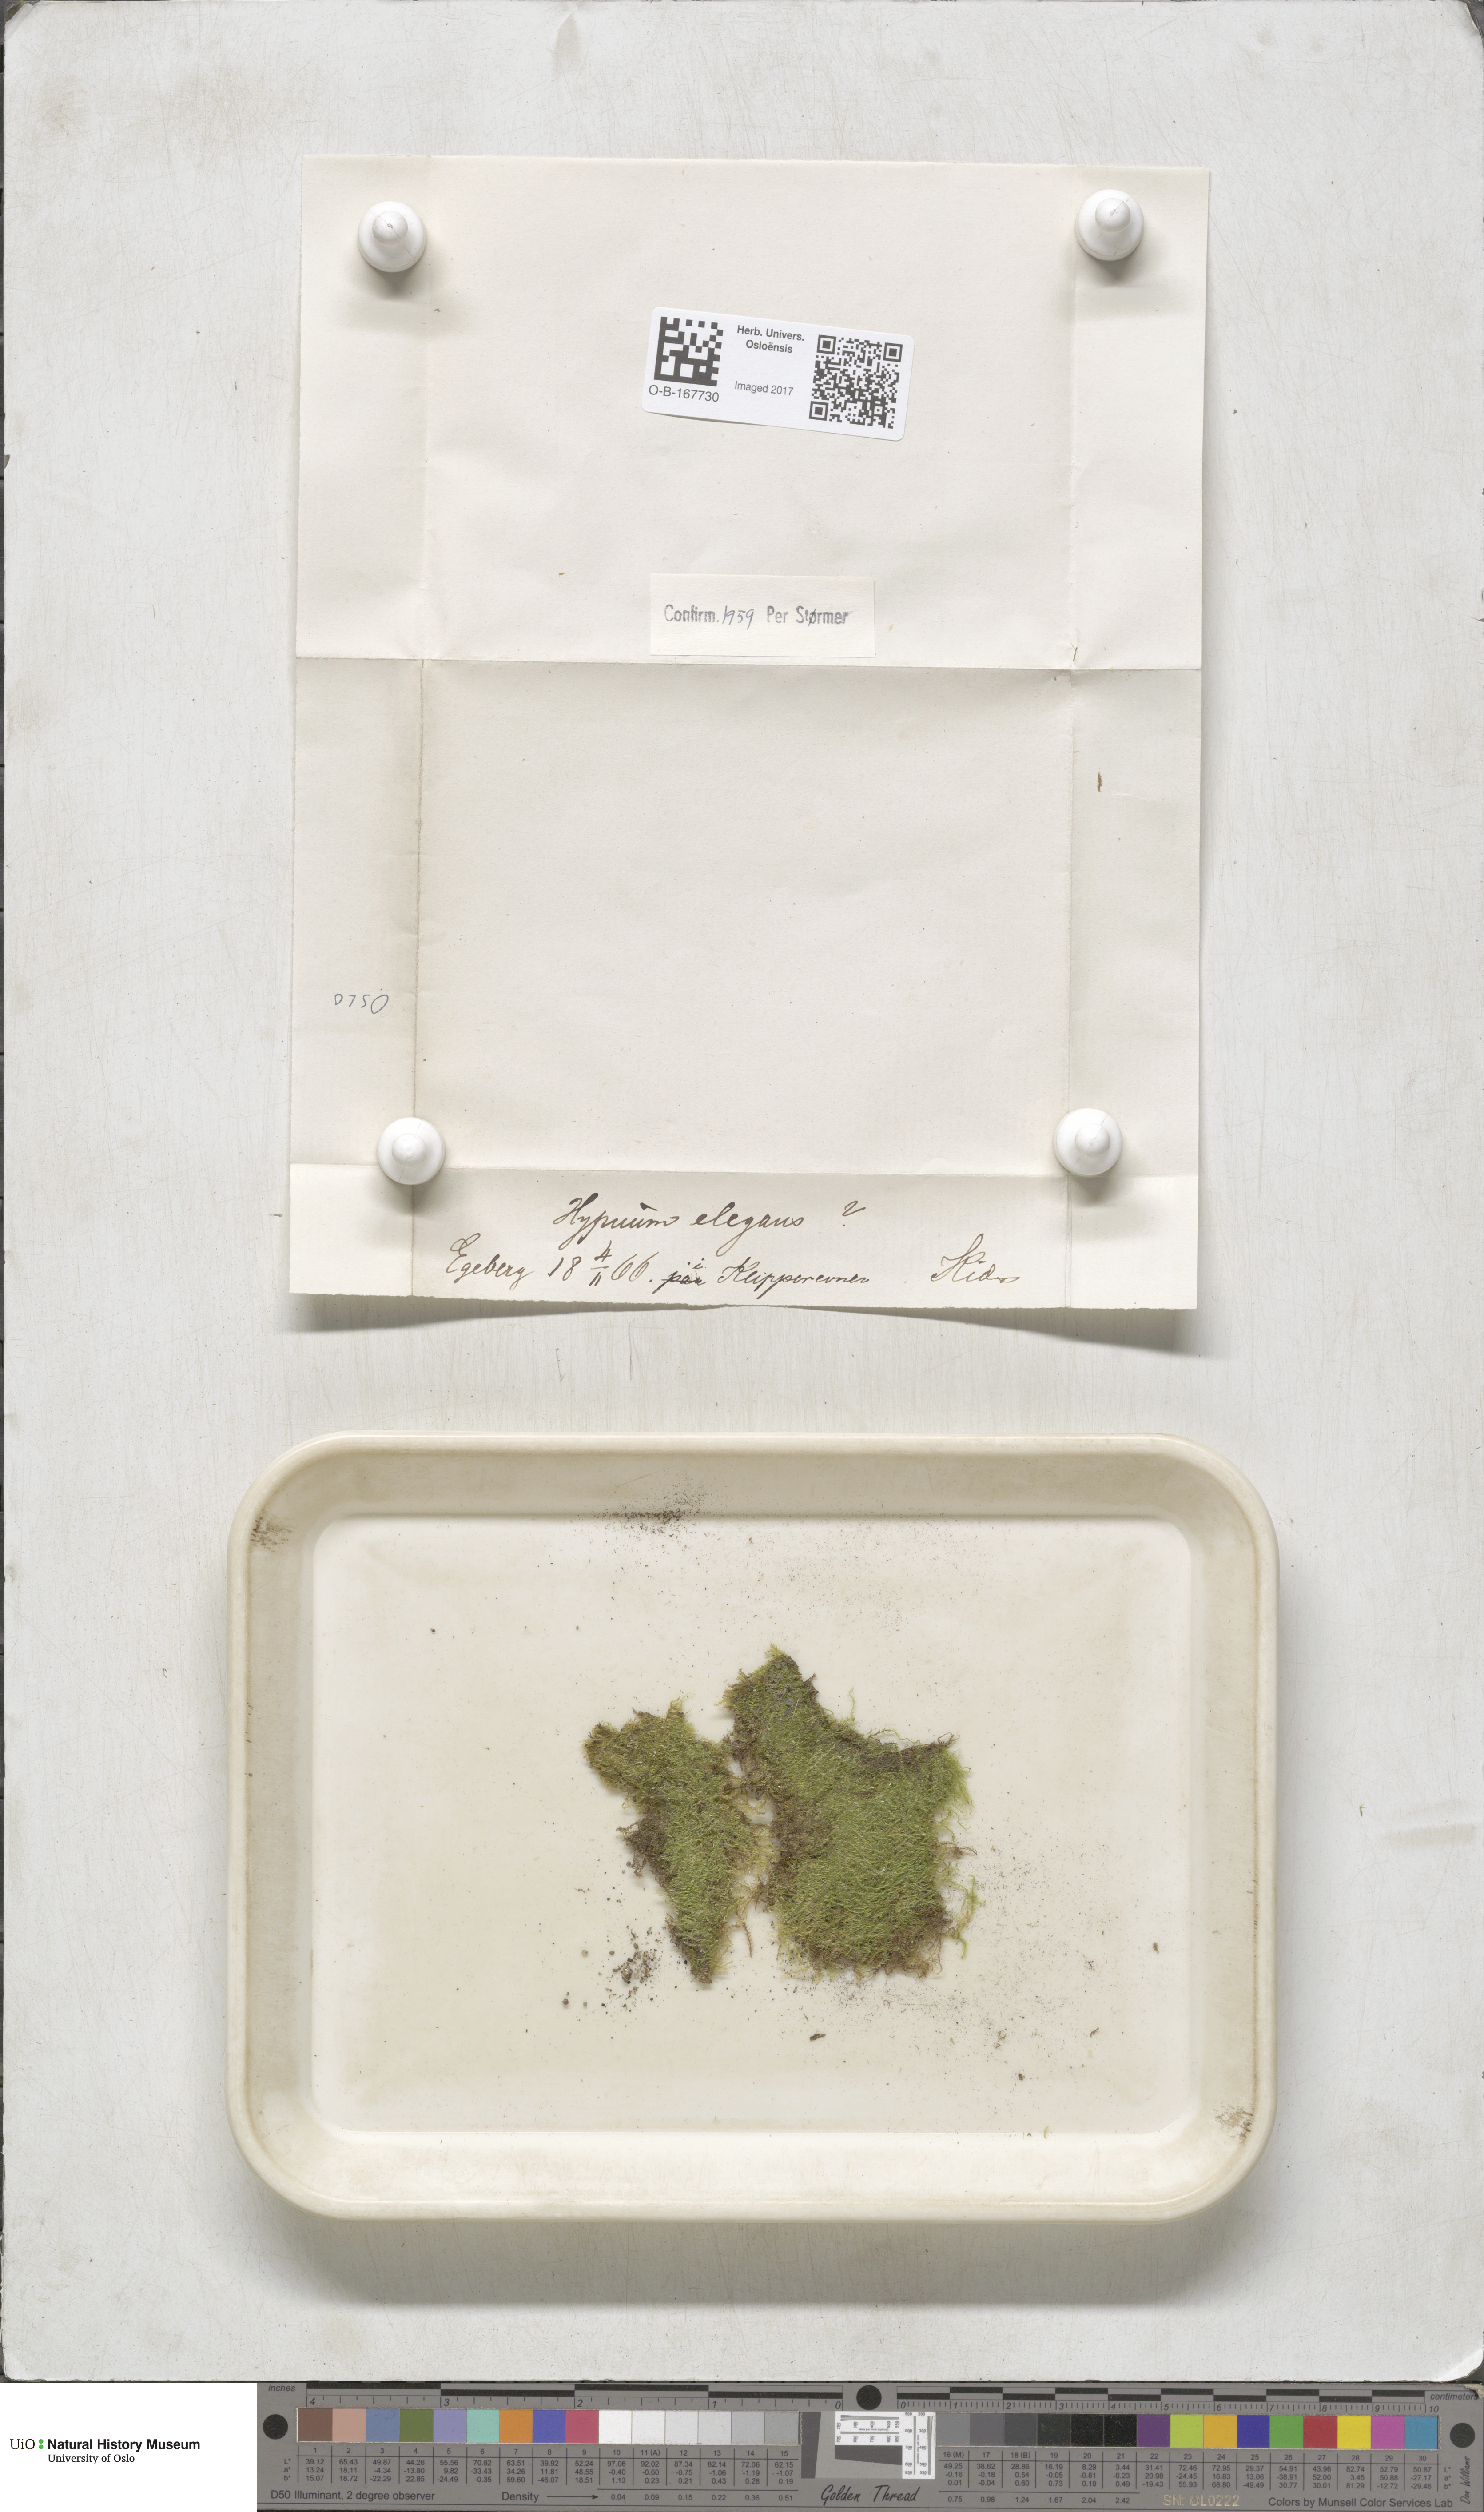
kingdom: Plantae
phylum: Bryophyta
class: Bryopsida
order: Hypnales
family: Plagiotheciaceae
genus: Pseudotaxiphyllum
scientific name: Pseudotaxiphyllum elegans
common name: Elegant silk moss
